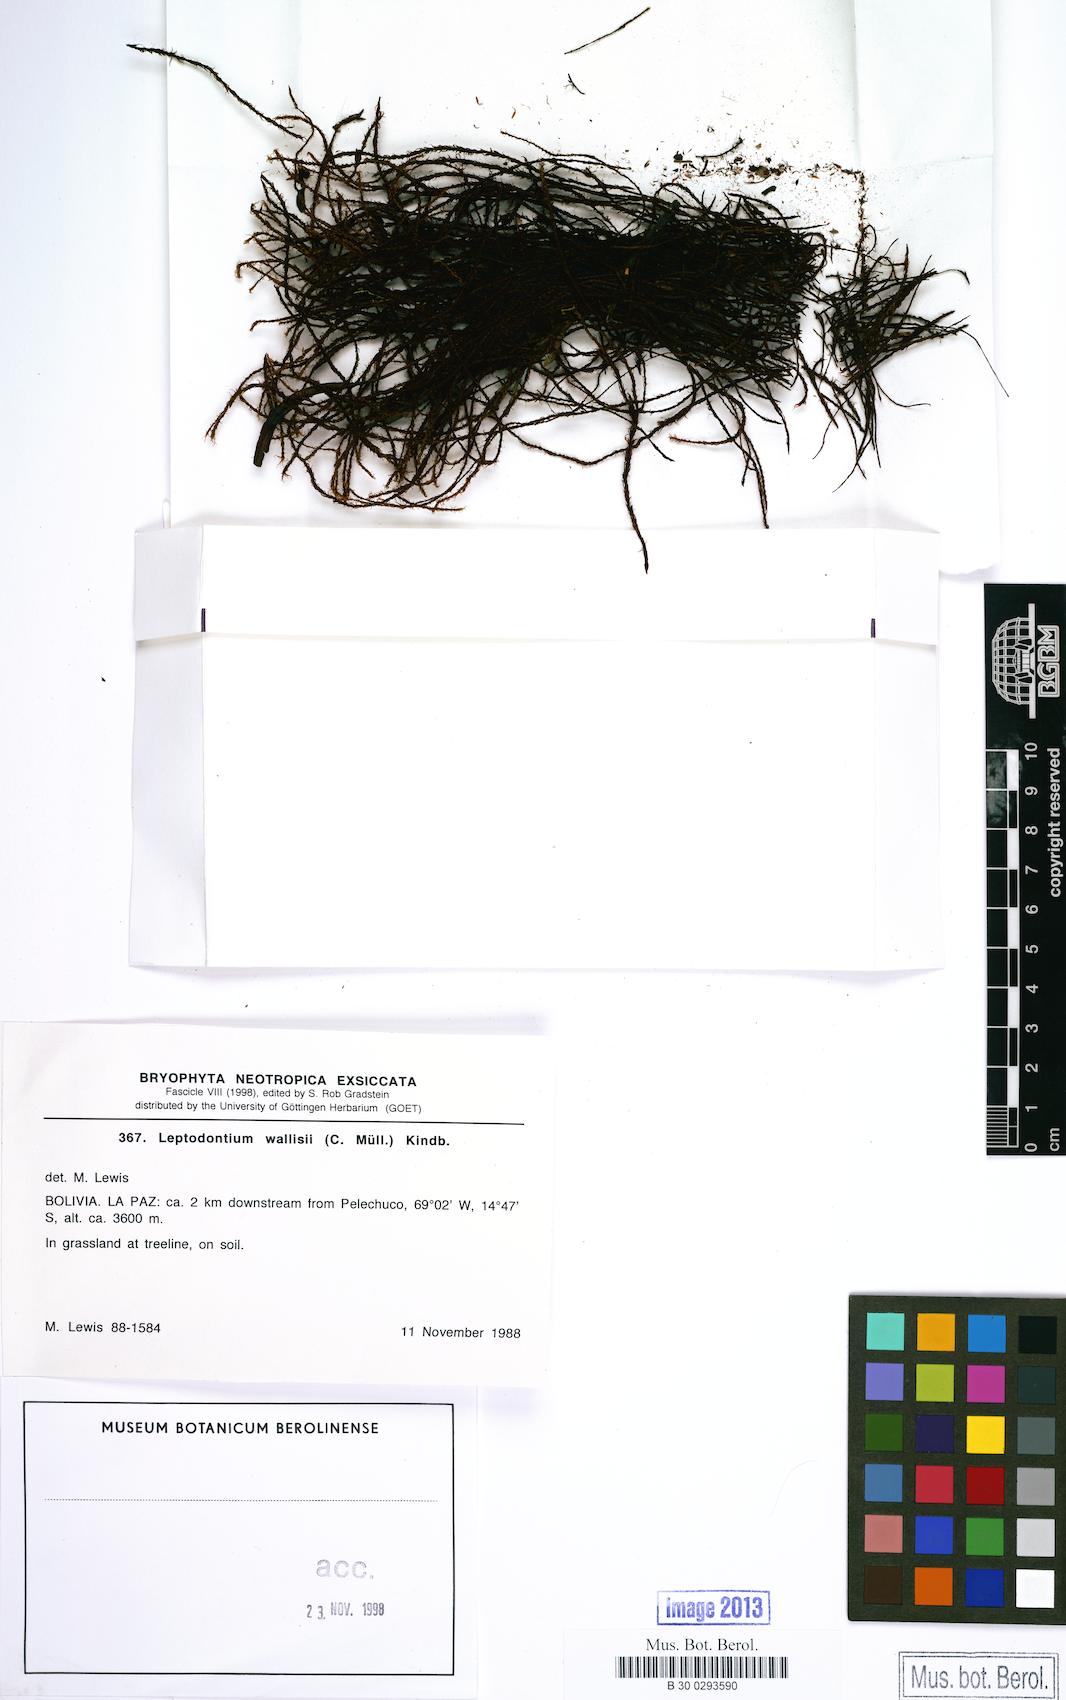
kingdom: Plantae
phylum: Bryophyta
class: Bryopsida
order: Pottiales
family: Pottiaceae
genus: Leptodontium
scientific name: Leptodontium wallisii
